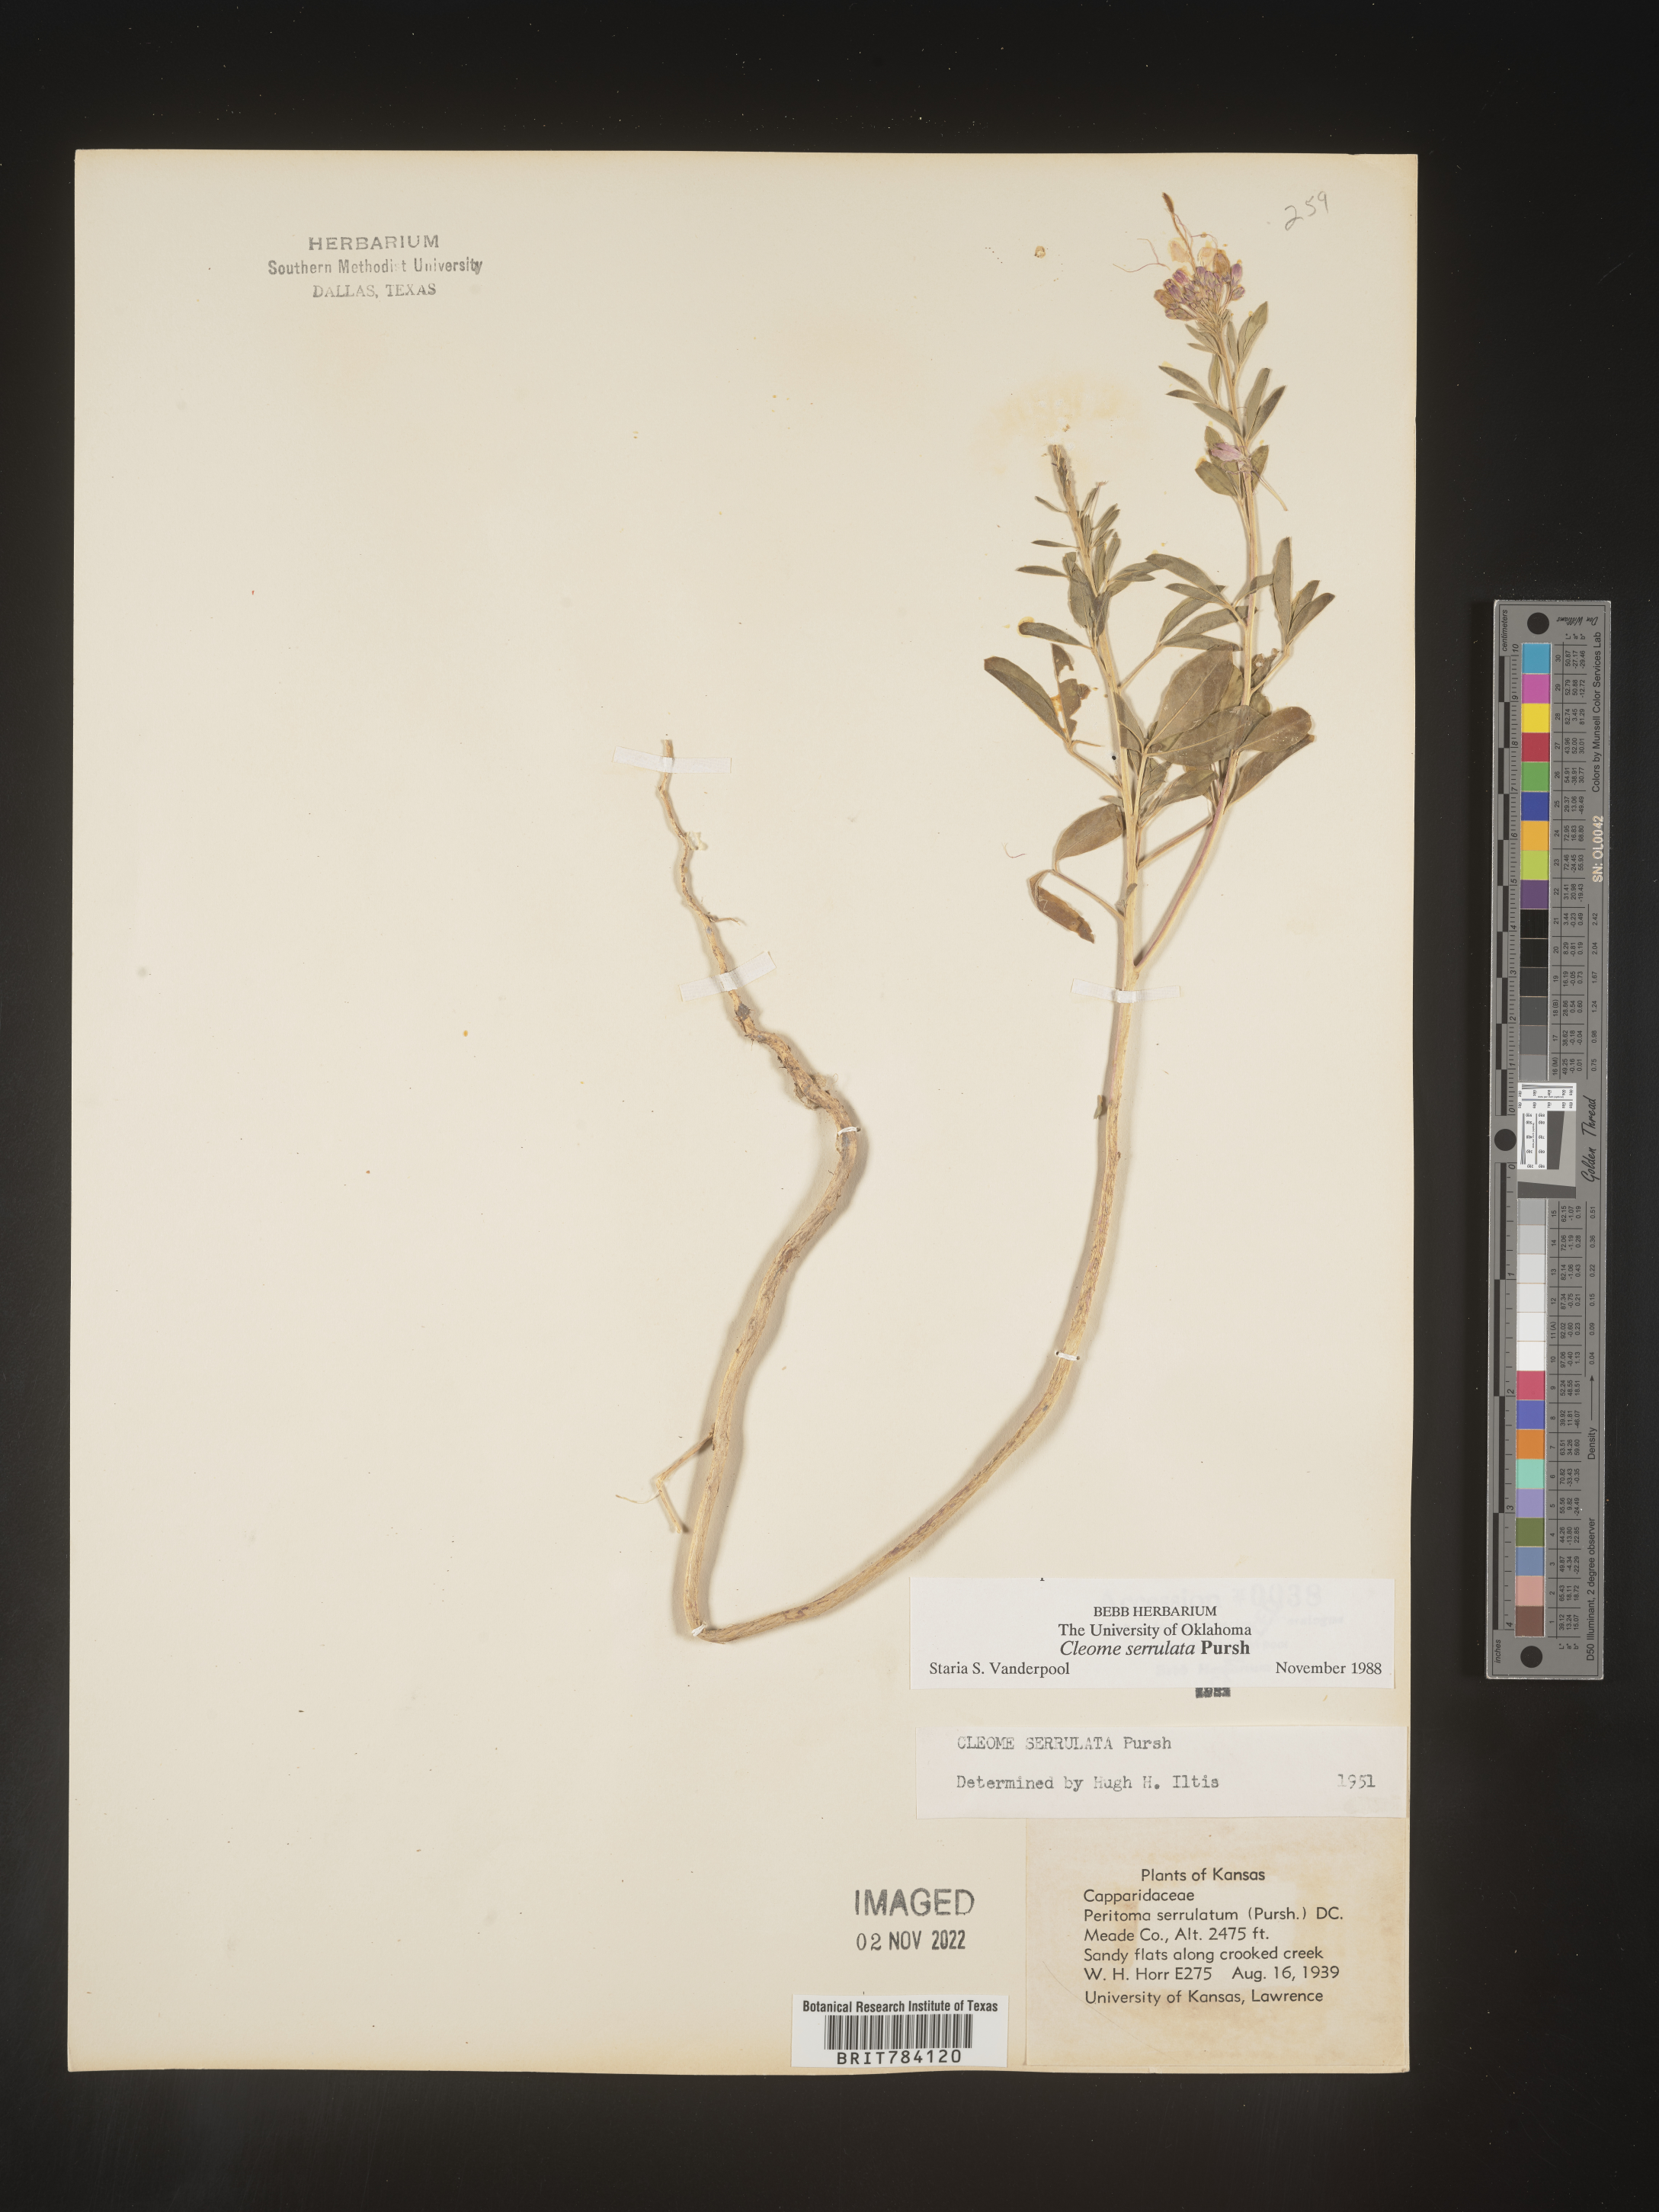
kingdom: Plantae
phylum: Tracheophyta
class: Magnoliopsida
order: Brassicales
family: Cleomaceae
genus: Cleomella
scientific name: Cleomella serrulata
